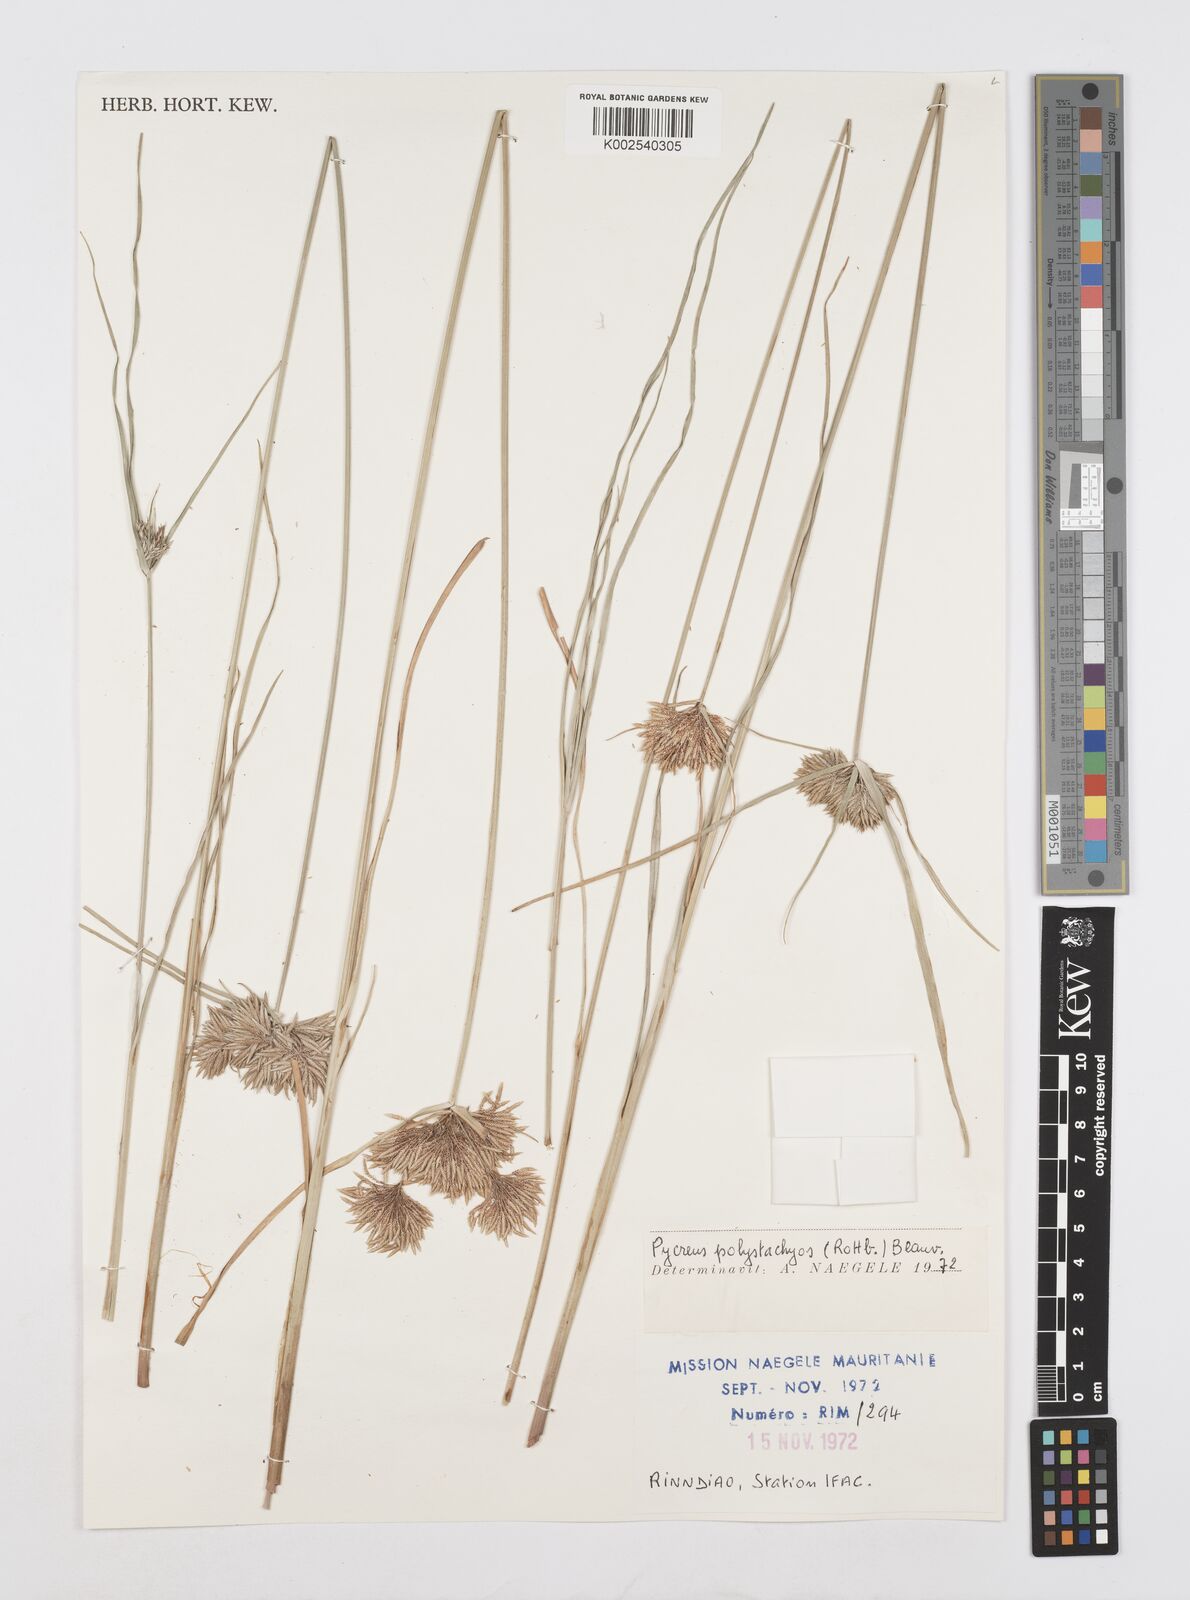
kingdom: Plantae
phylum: Tracheophyta
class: Liliopsida
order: Poales
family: Cyperaceae
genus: Cyperus
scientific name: Cyperus polystachyos
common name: Bunchy flat sedge
